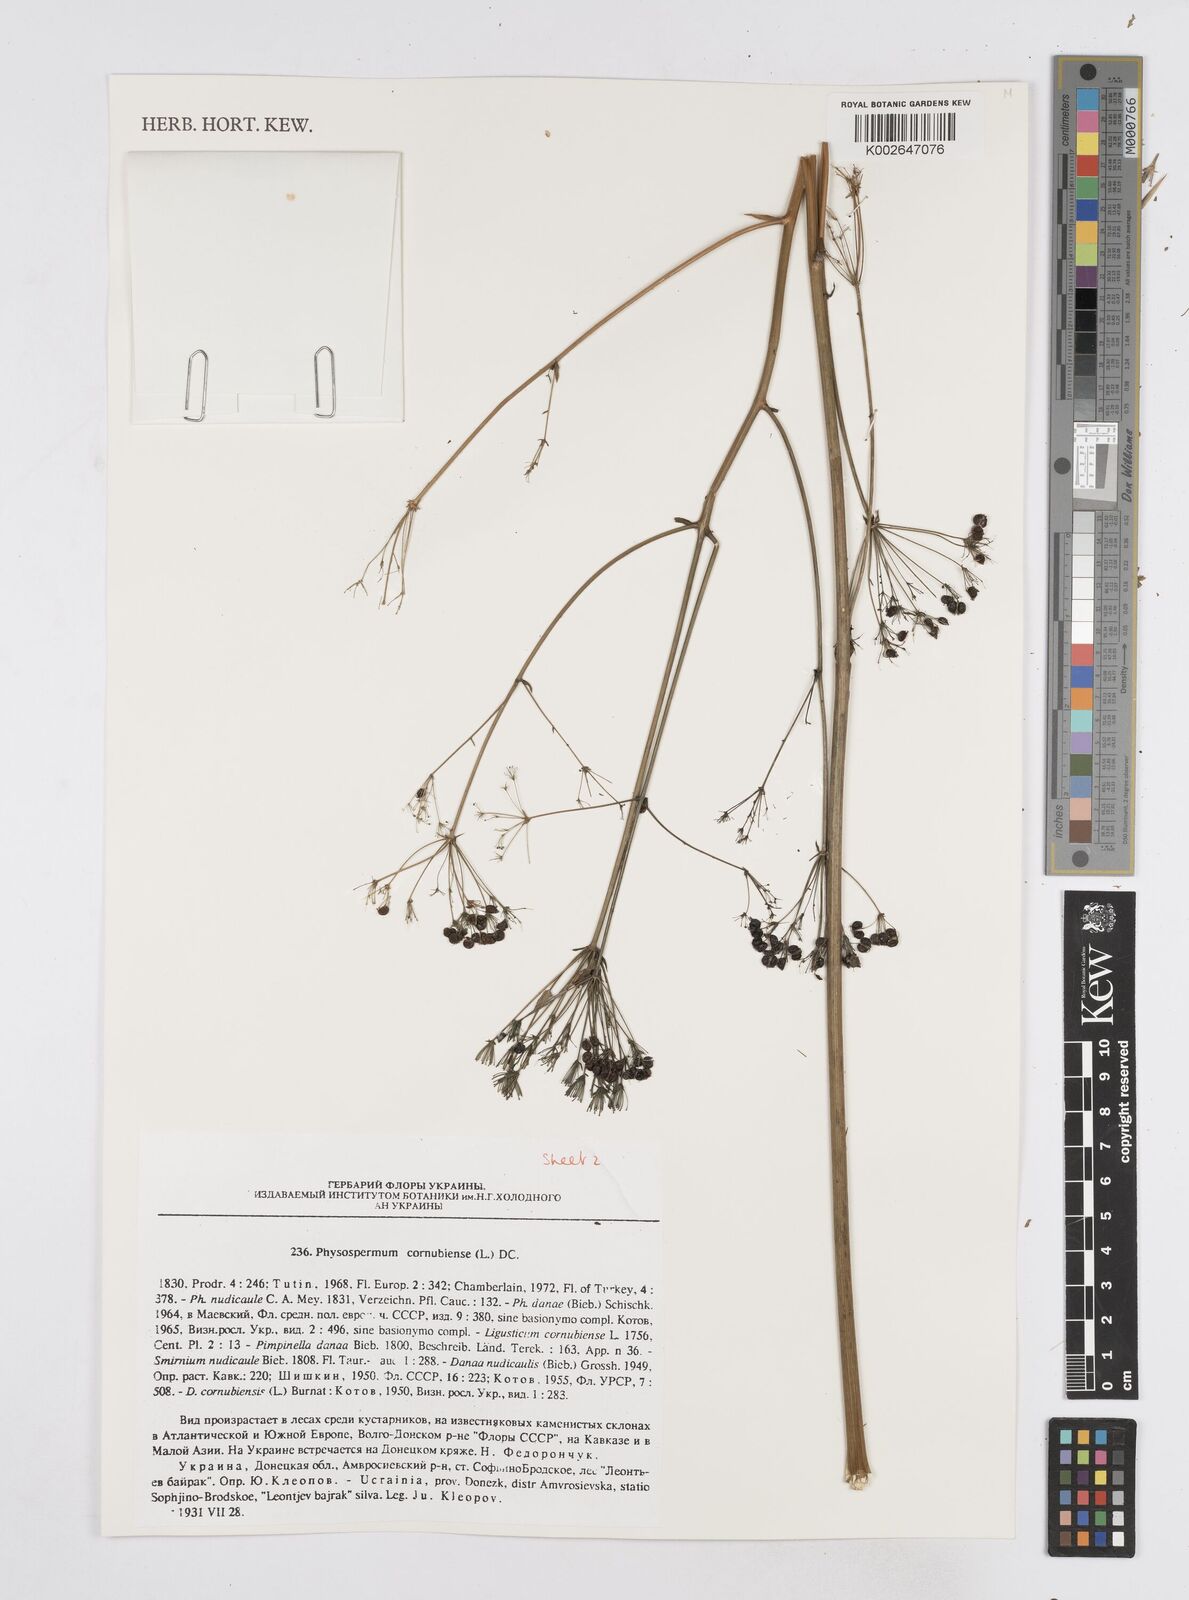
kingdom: Plantae
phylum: Tracheophyta
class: Magnoliopsida
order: Apiales
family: Apiaceae
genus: Physospermum
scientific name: Physospermum cornubiense
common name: Bladderseed
